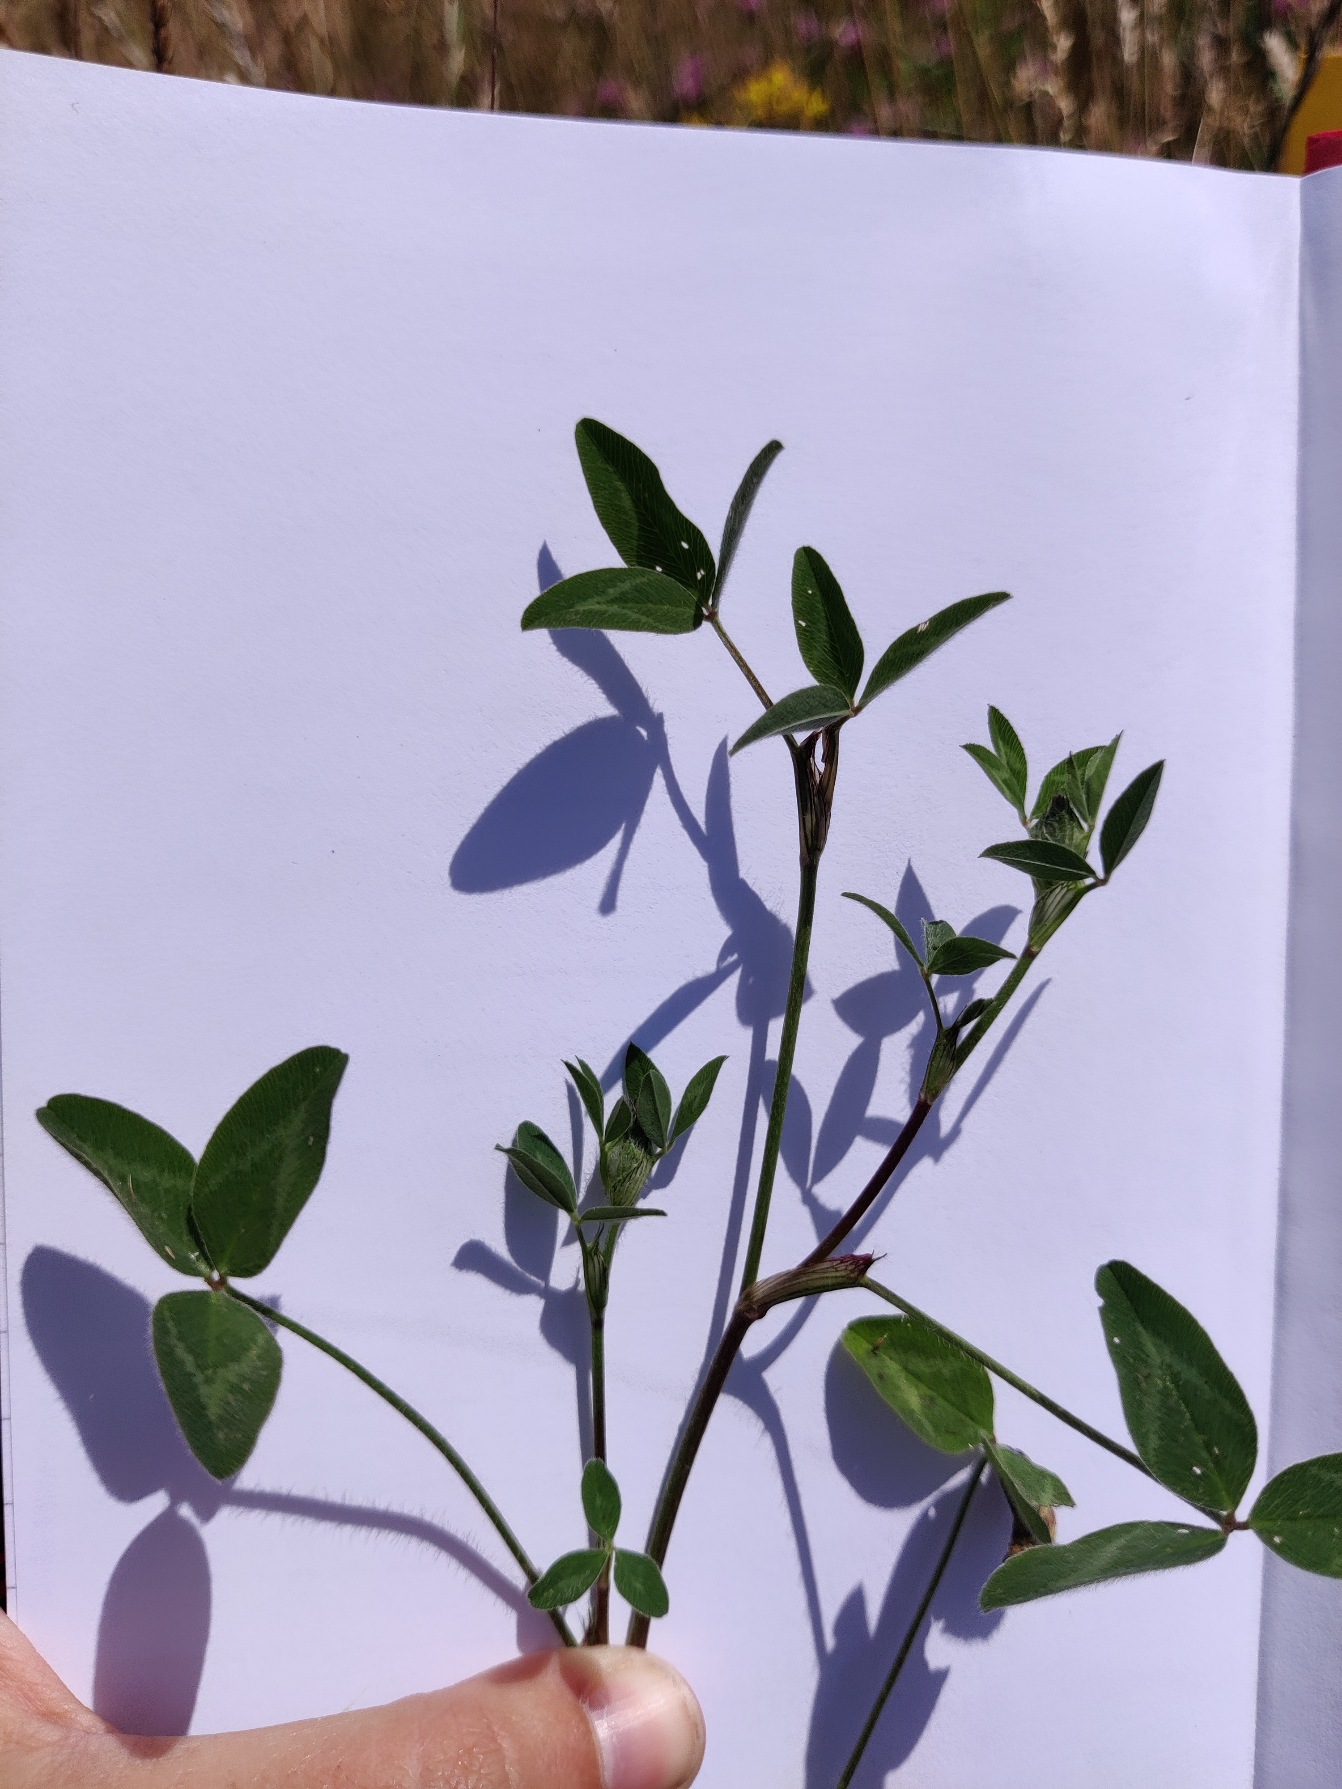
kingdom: Plantae
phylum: Tracheophyta
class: Magnoliopsida
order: Fabales
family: Fabaceae
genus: Trifolium
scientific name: Trifolium pratense
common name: Rød-kløver
